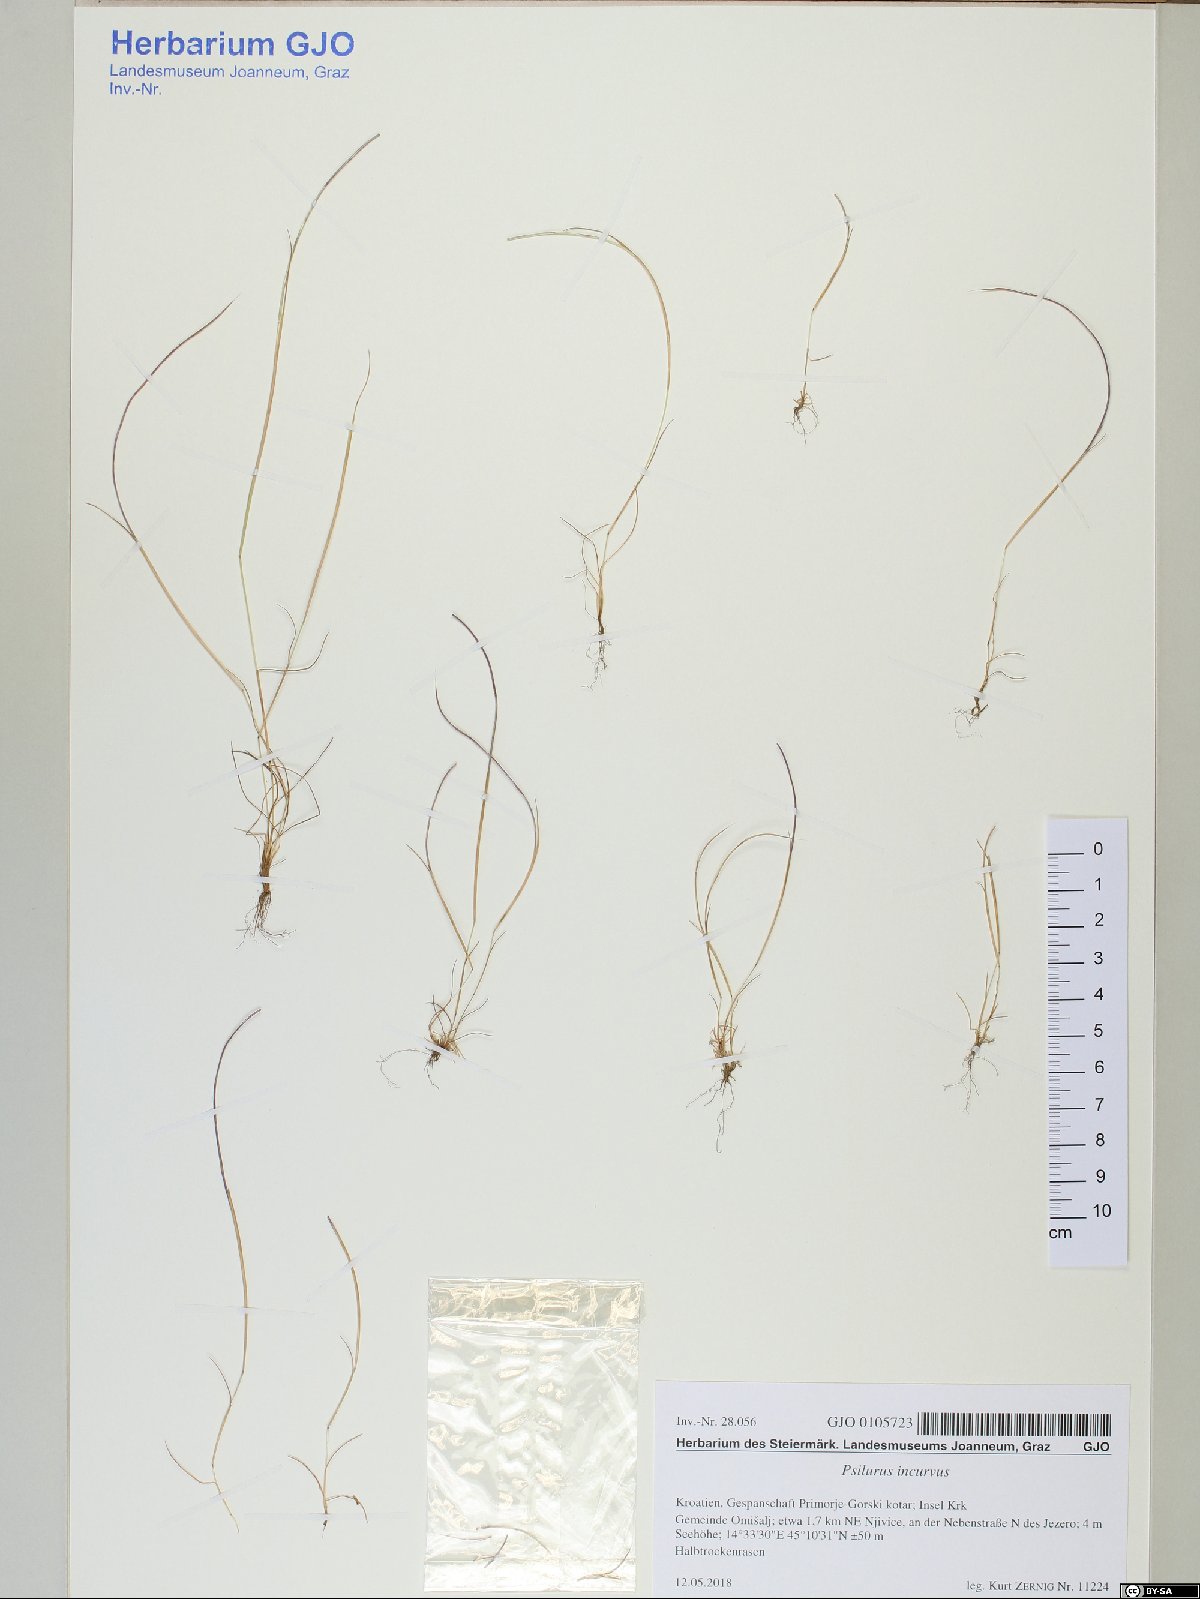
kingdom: Plantae
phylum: Tracheophyta
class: Liliopsida
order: Poales
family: Poaceae
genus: Festuca
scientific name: Festuca incurva
